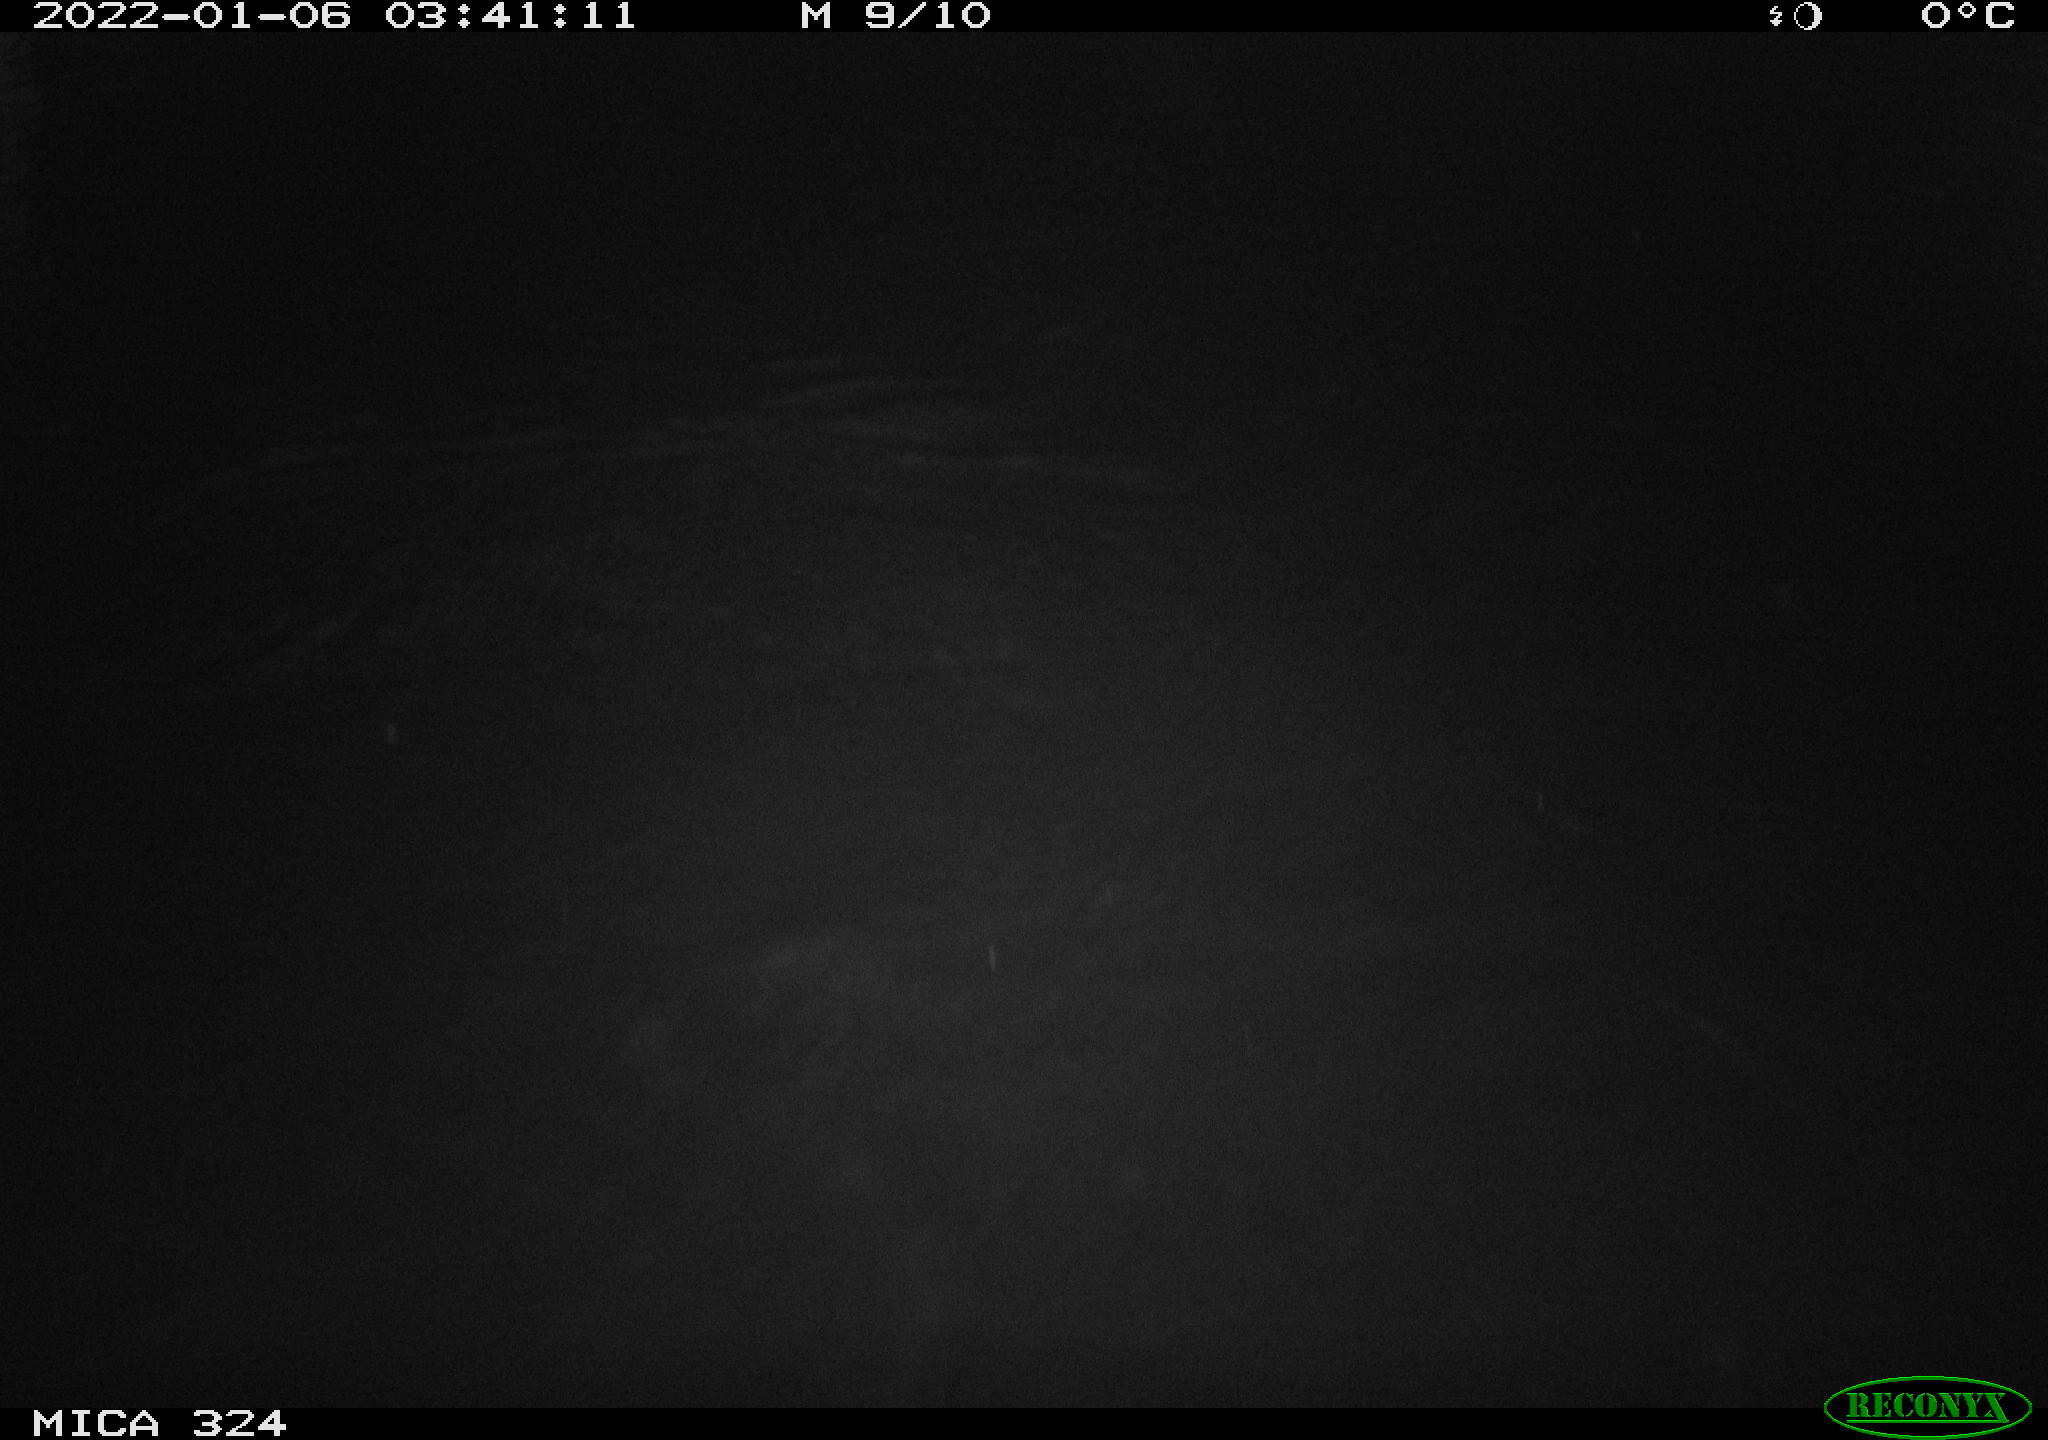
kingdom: Animalia
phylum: Chordata
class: Mammalia
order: Rodentia
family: Cricetidae
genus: Ondatra
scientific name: Ondatra zibethicus
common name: Muskrat
